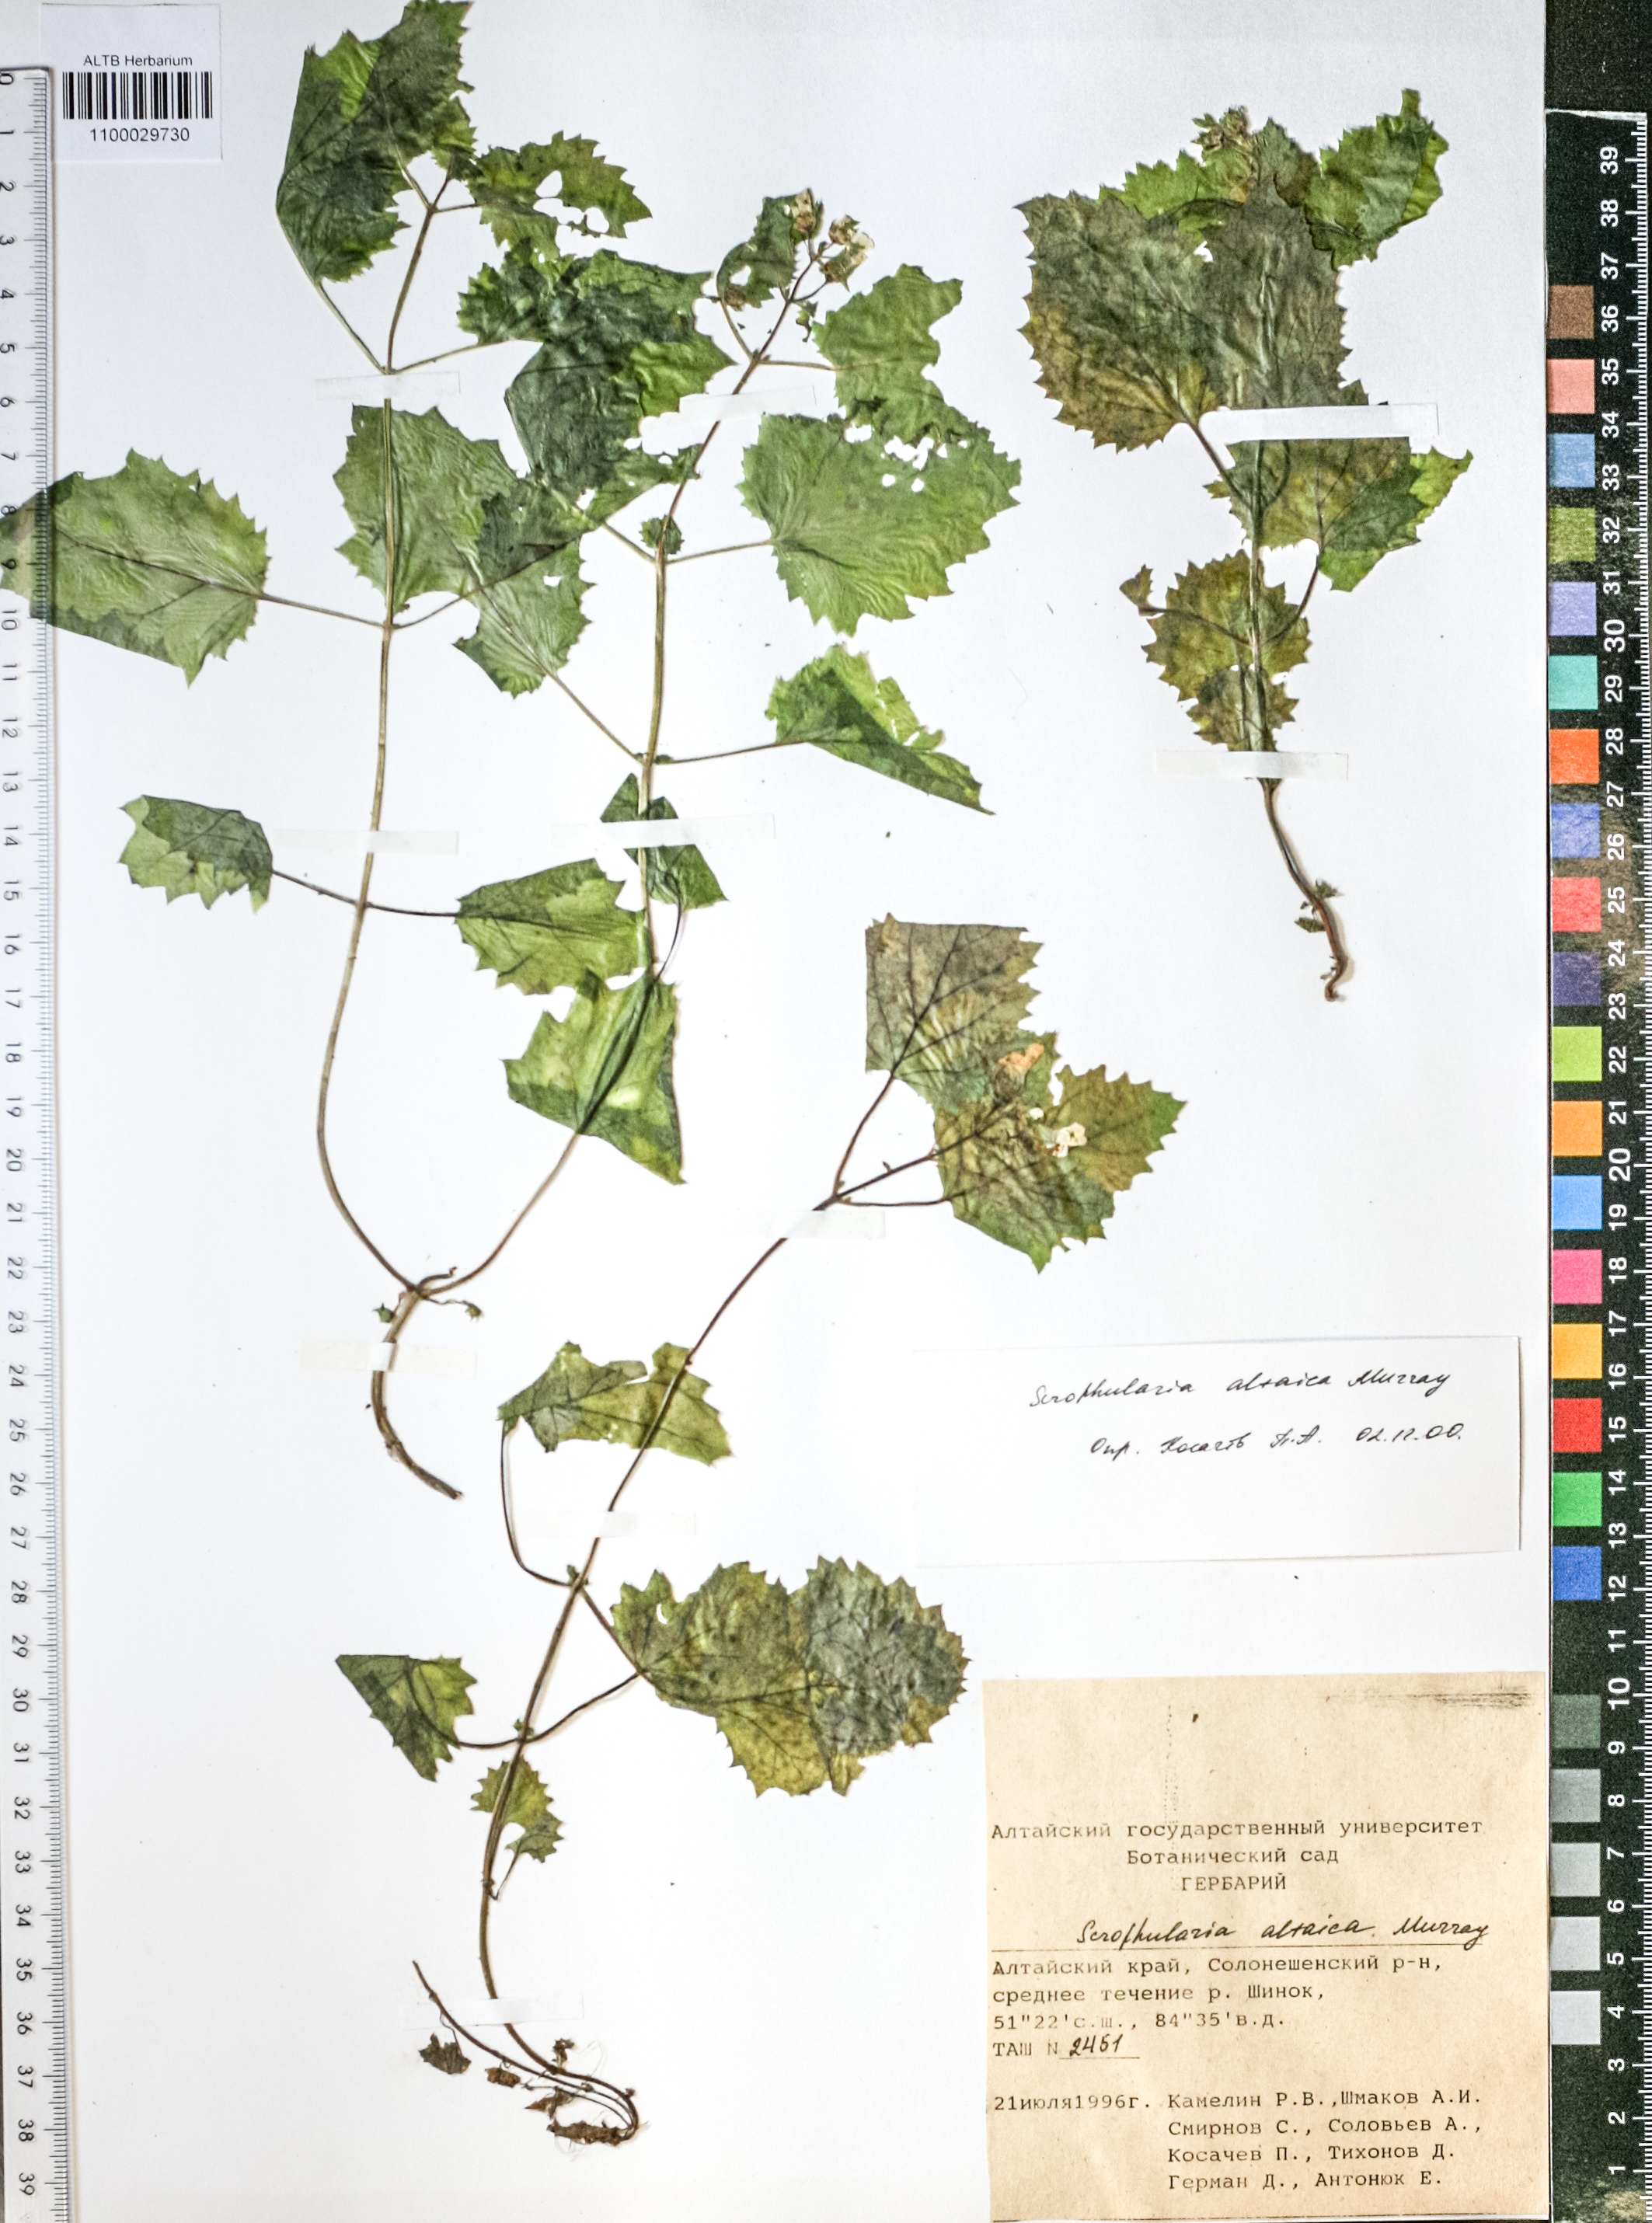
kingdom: Plantae
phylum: Tracheophyta
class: Magnoliopsida
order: Lamiales
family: Scrophulariaceae
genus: Scrophularia
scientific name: Scrophularia altaica
